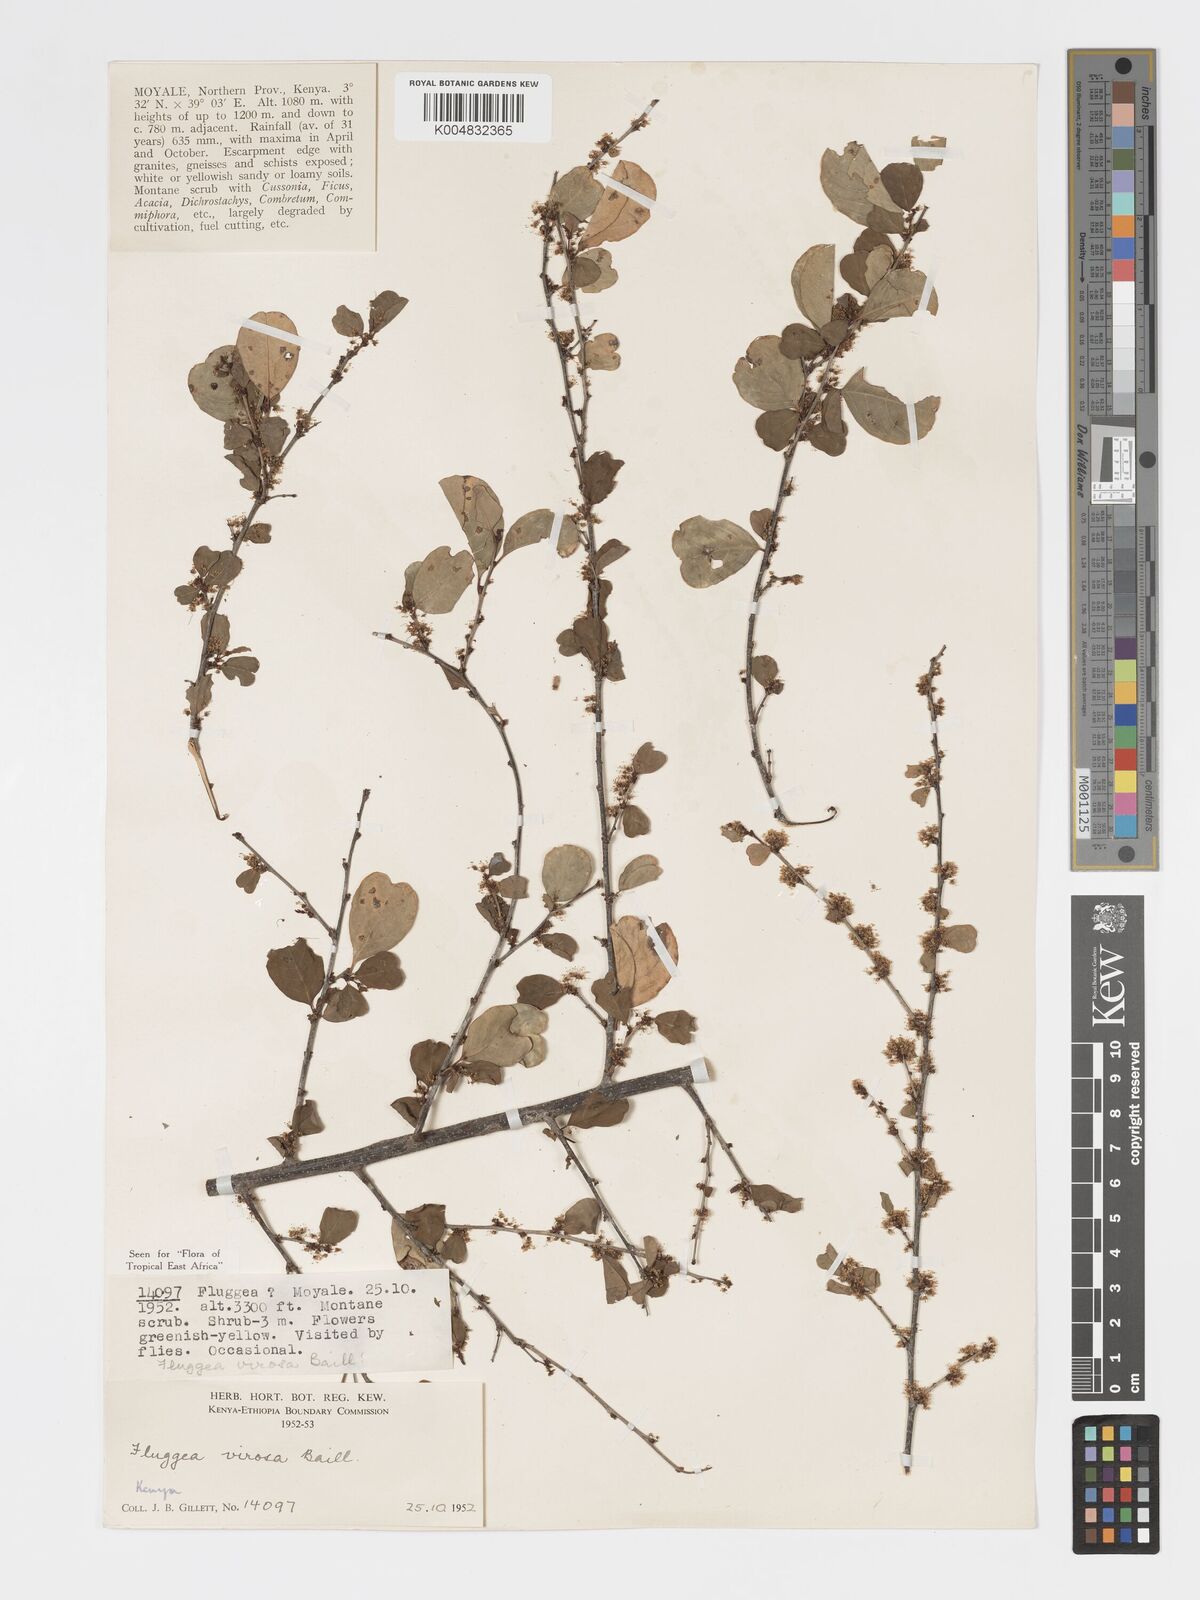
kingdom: Plantae
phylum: Tracheophyta
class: Magnoliopsida
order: Malpighiales
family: Phyllanthaceae
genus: Flueggea
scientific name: Flueggea virosa
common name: Common bushweed
